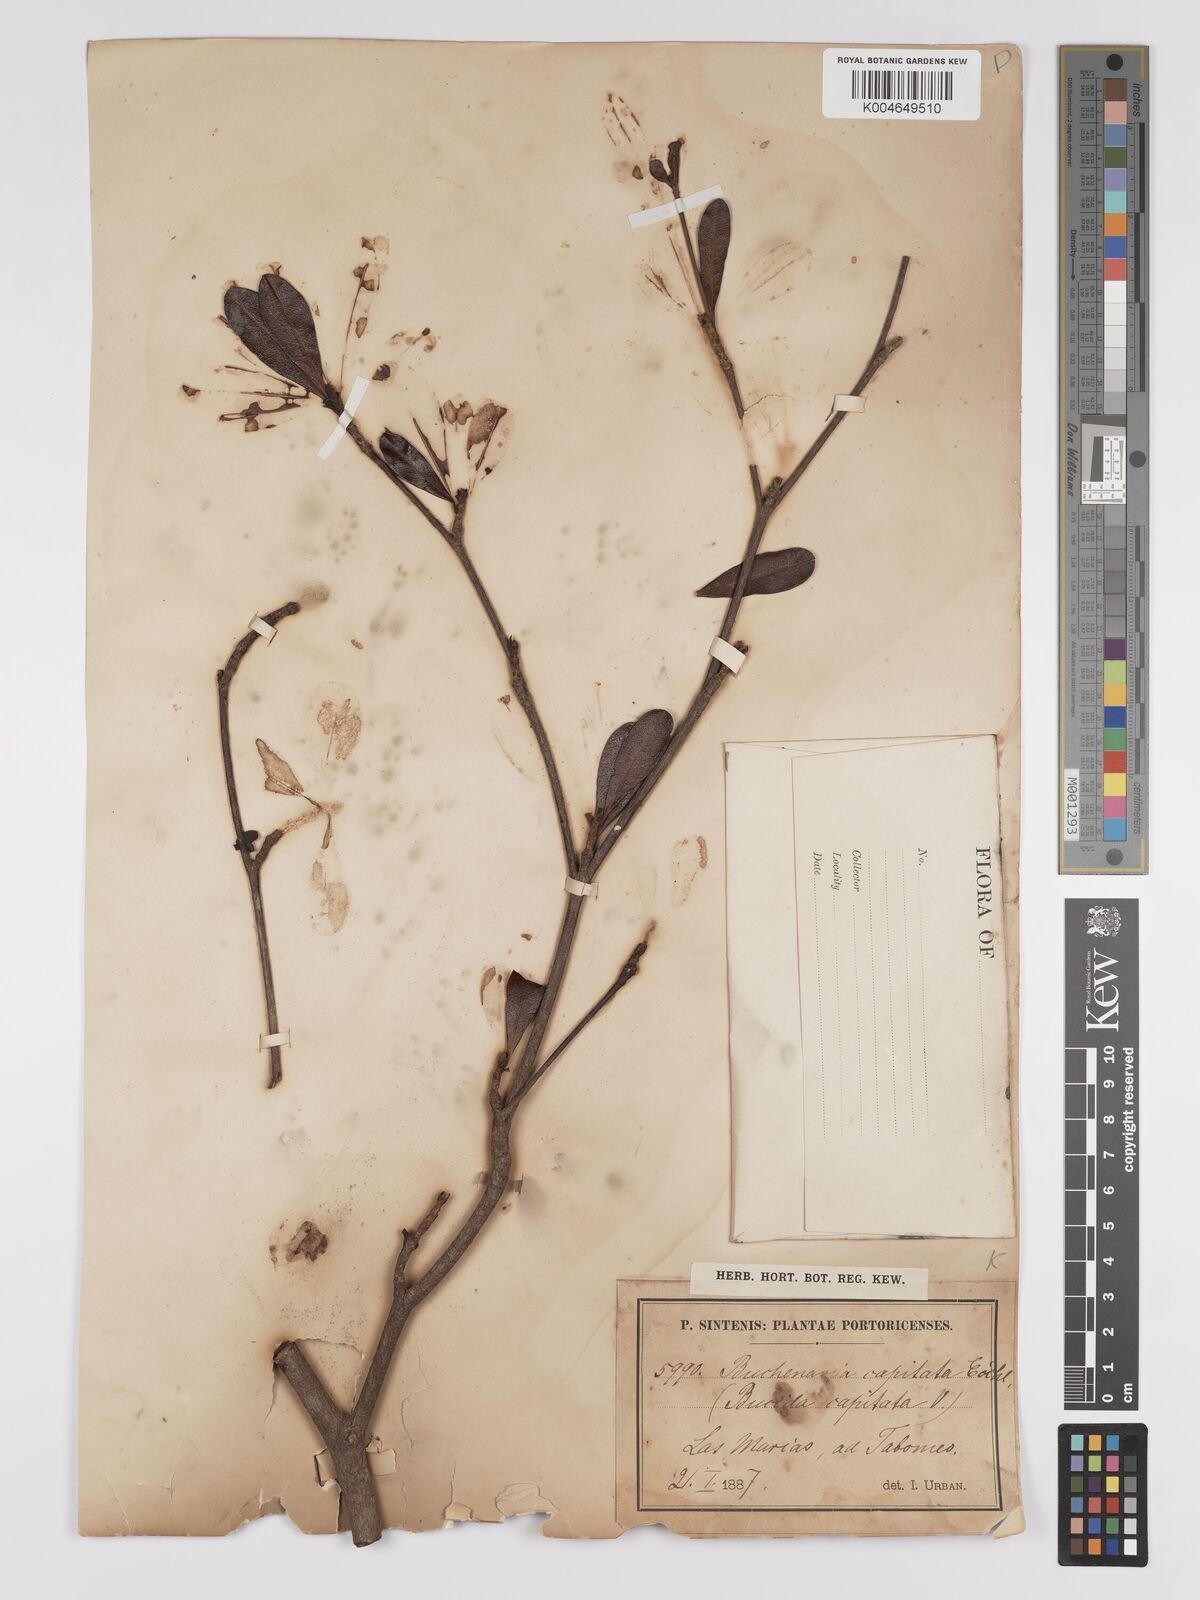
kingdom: Plantae
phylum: Tracheophyta
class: Magnoliopsida
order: Myrtales
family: Combretaceae
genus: Terminalia
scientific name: Terminalia tetraphylla
